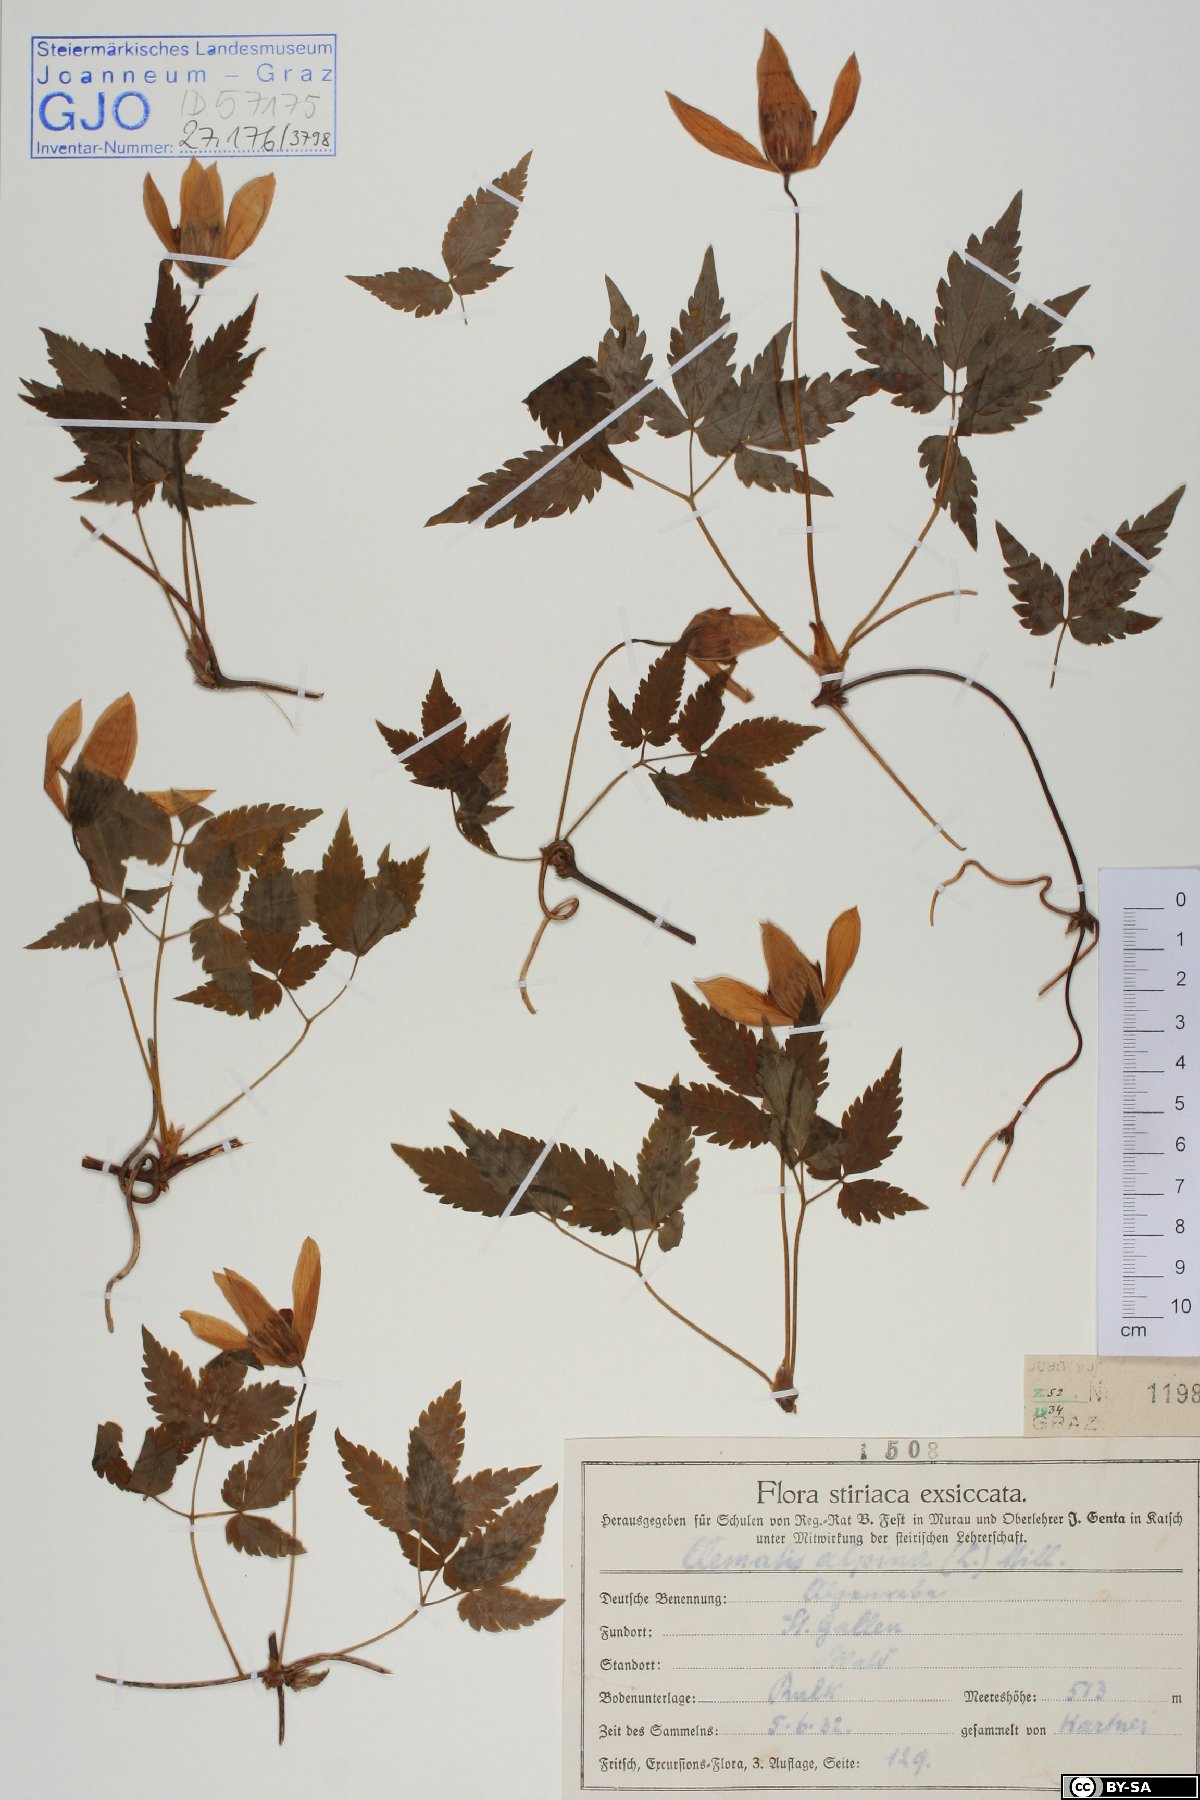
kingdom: Plantae
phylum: Tracheophyta
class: Magnoliopsida
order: Ranunculales
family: Ranunculaceae
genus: Clematis
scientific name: Clematis alpina
